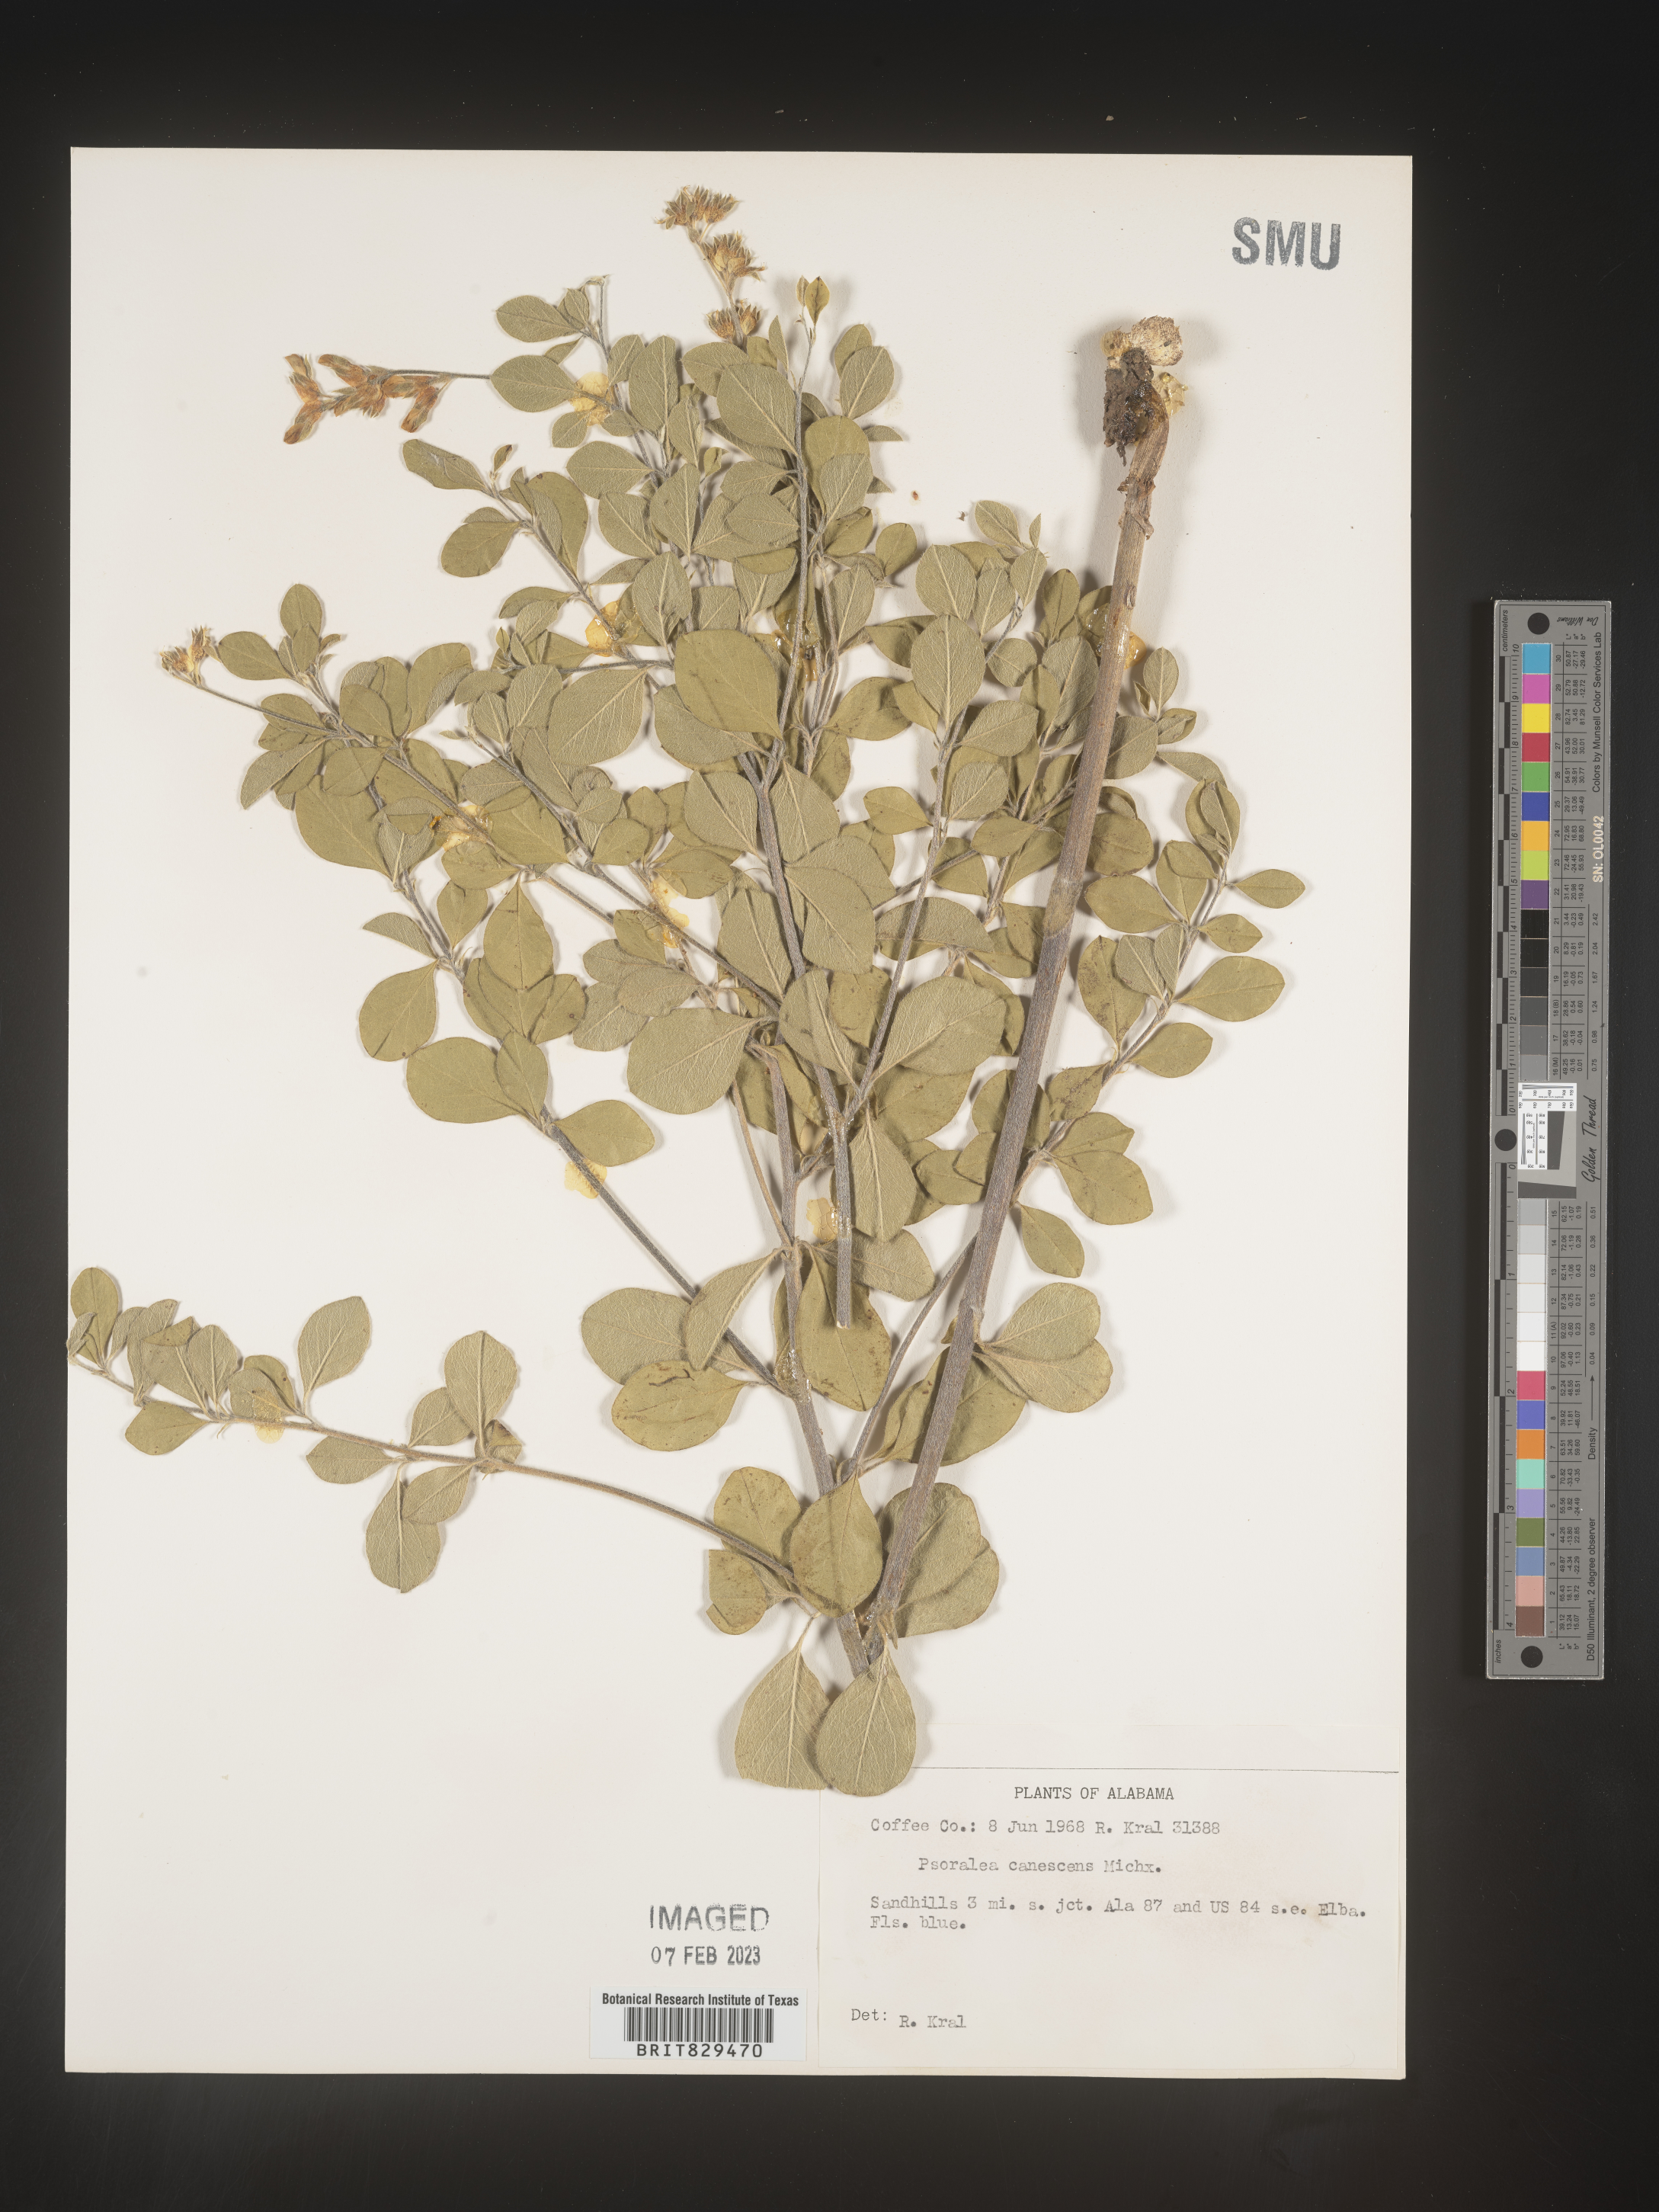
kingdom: Plantae
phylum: Tracheophyta
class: Magnoliopsida
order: Fabales
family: Fabaceae
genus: Pediomelum
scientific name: Pediomelum canescens
